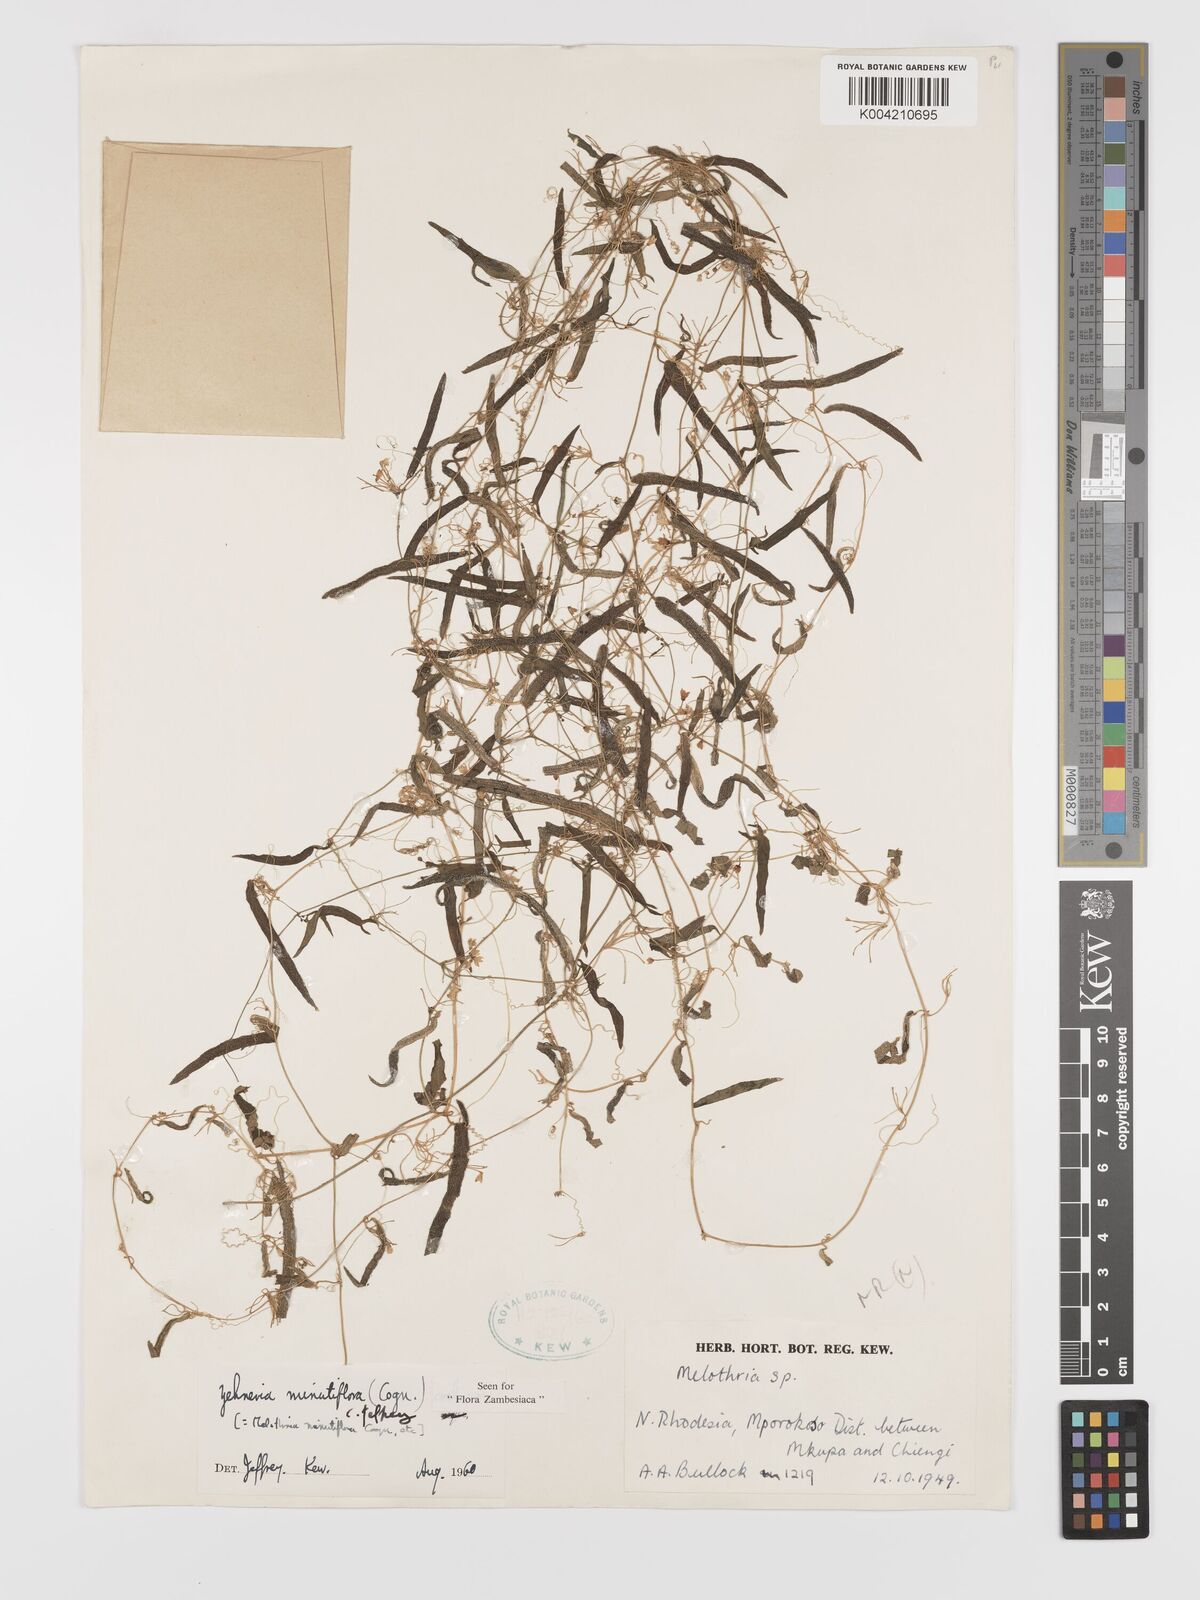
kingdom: Plantae
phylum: Tracheophyta
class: Magnoliopsida
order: Cucurbitales
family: Cucurbitaceae
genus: Zehneria
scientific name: Zehneria minutiflora
